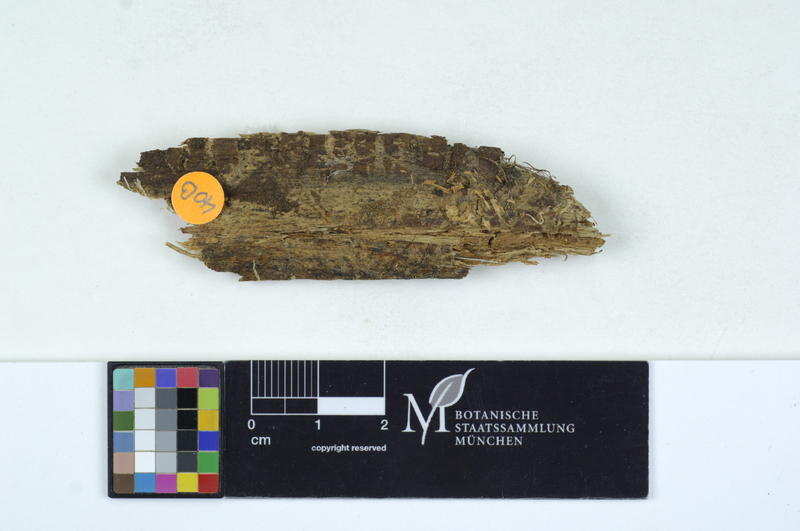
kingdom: Fungi
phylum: Basidiomycota
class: Agaricomycetes
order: Auriculariales
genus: Mycostilla
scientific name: Mycostilla vermiformis
